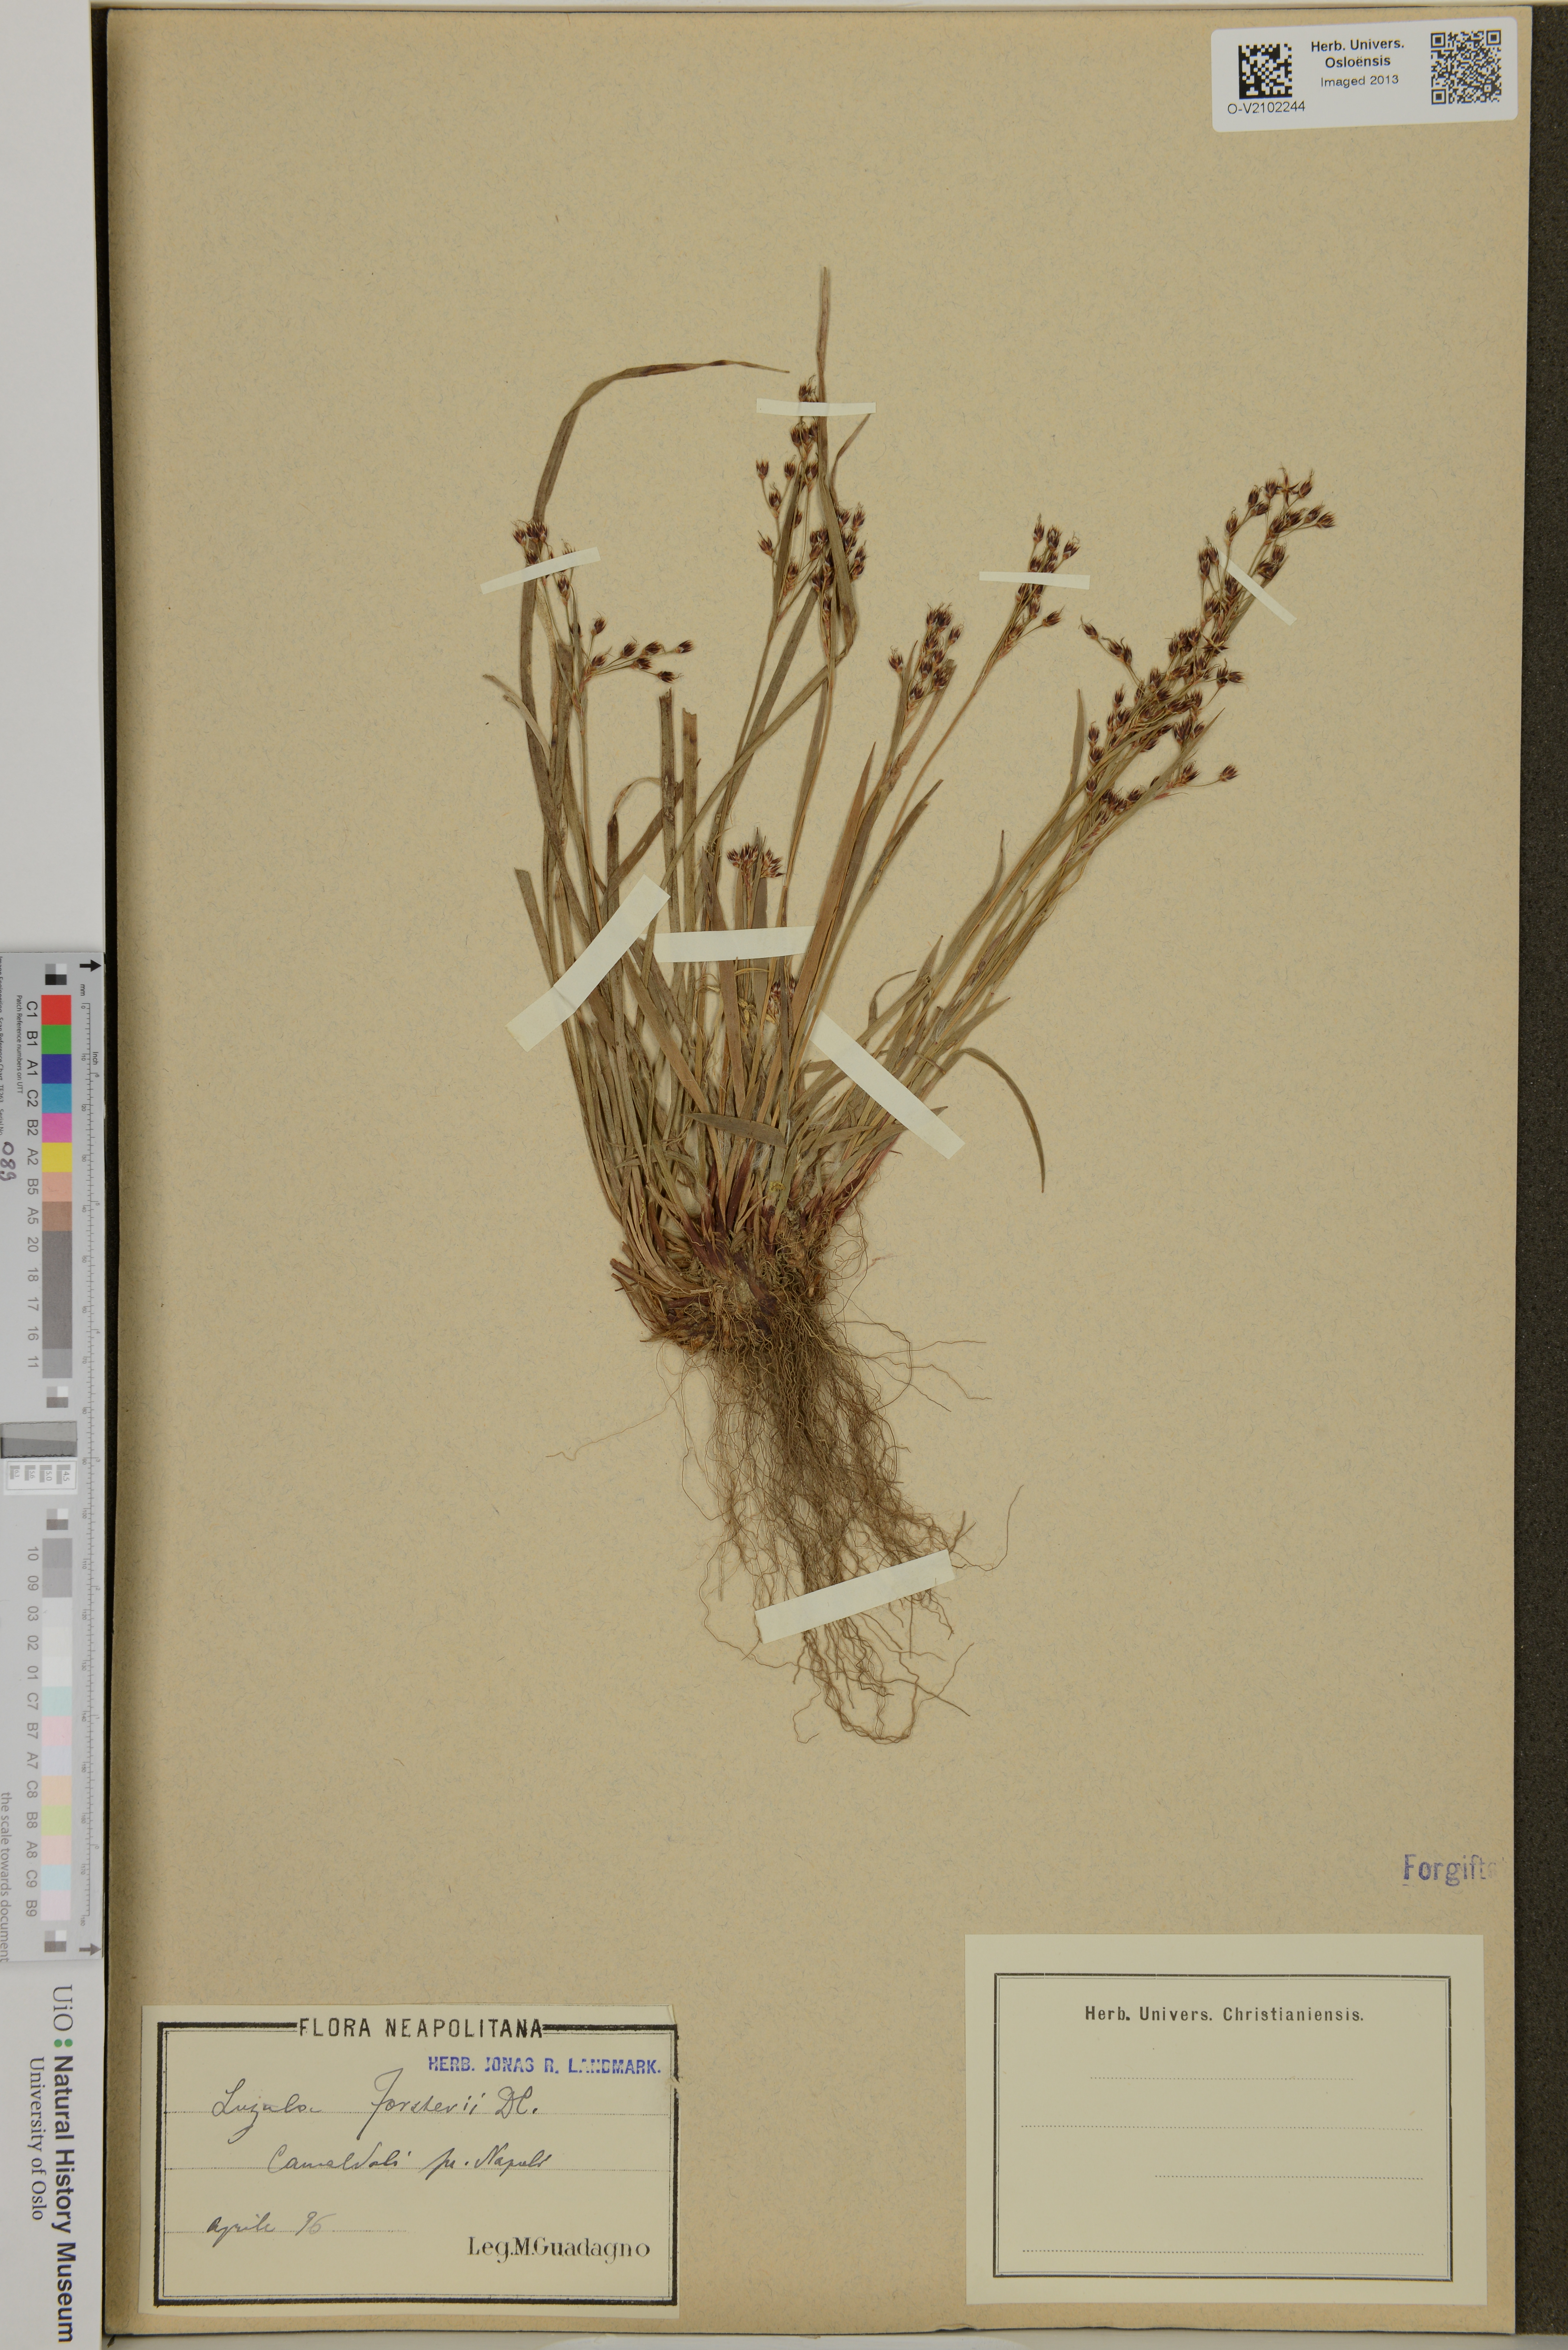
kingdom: Plantae
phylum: Tracheophyta
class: Liliopsida
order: Poales
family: Juncaceae
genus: Luzula
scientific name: Luzula forsteri
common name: Southern wood-rush
